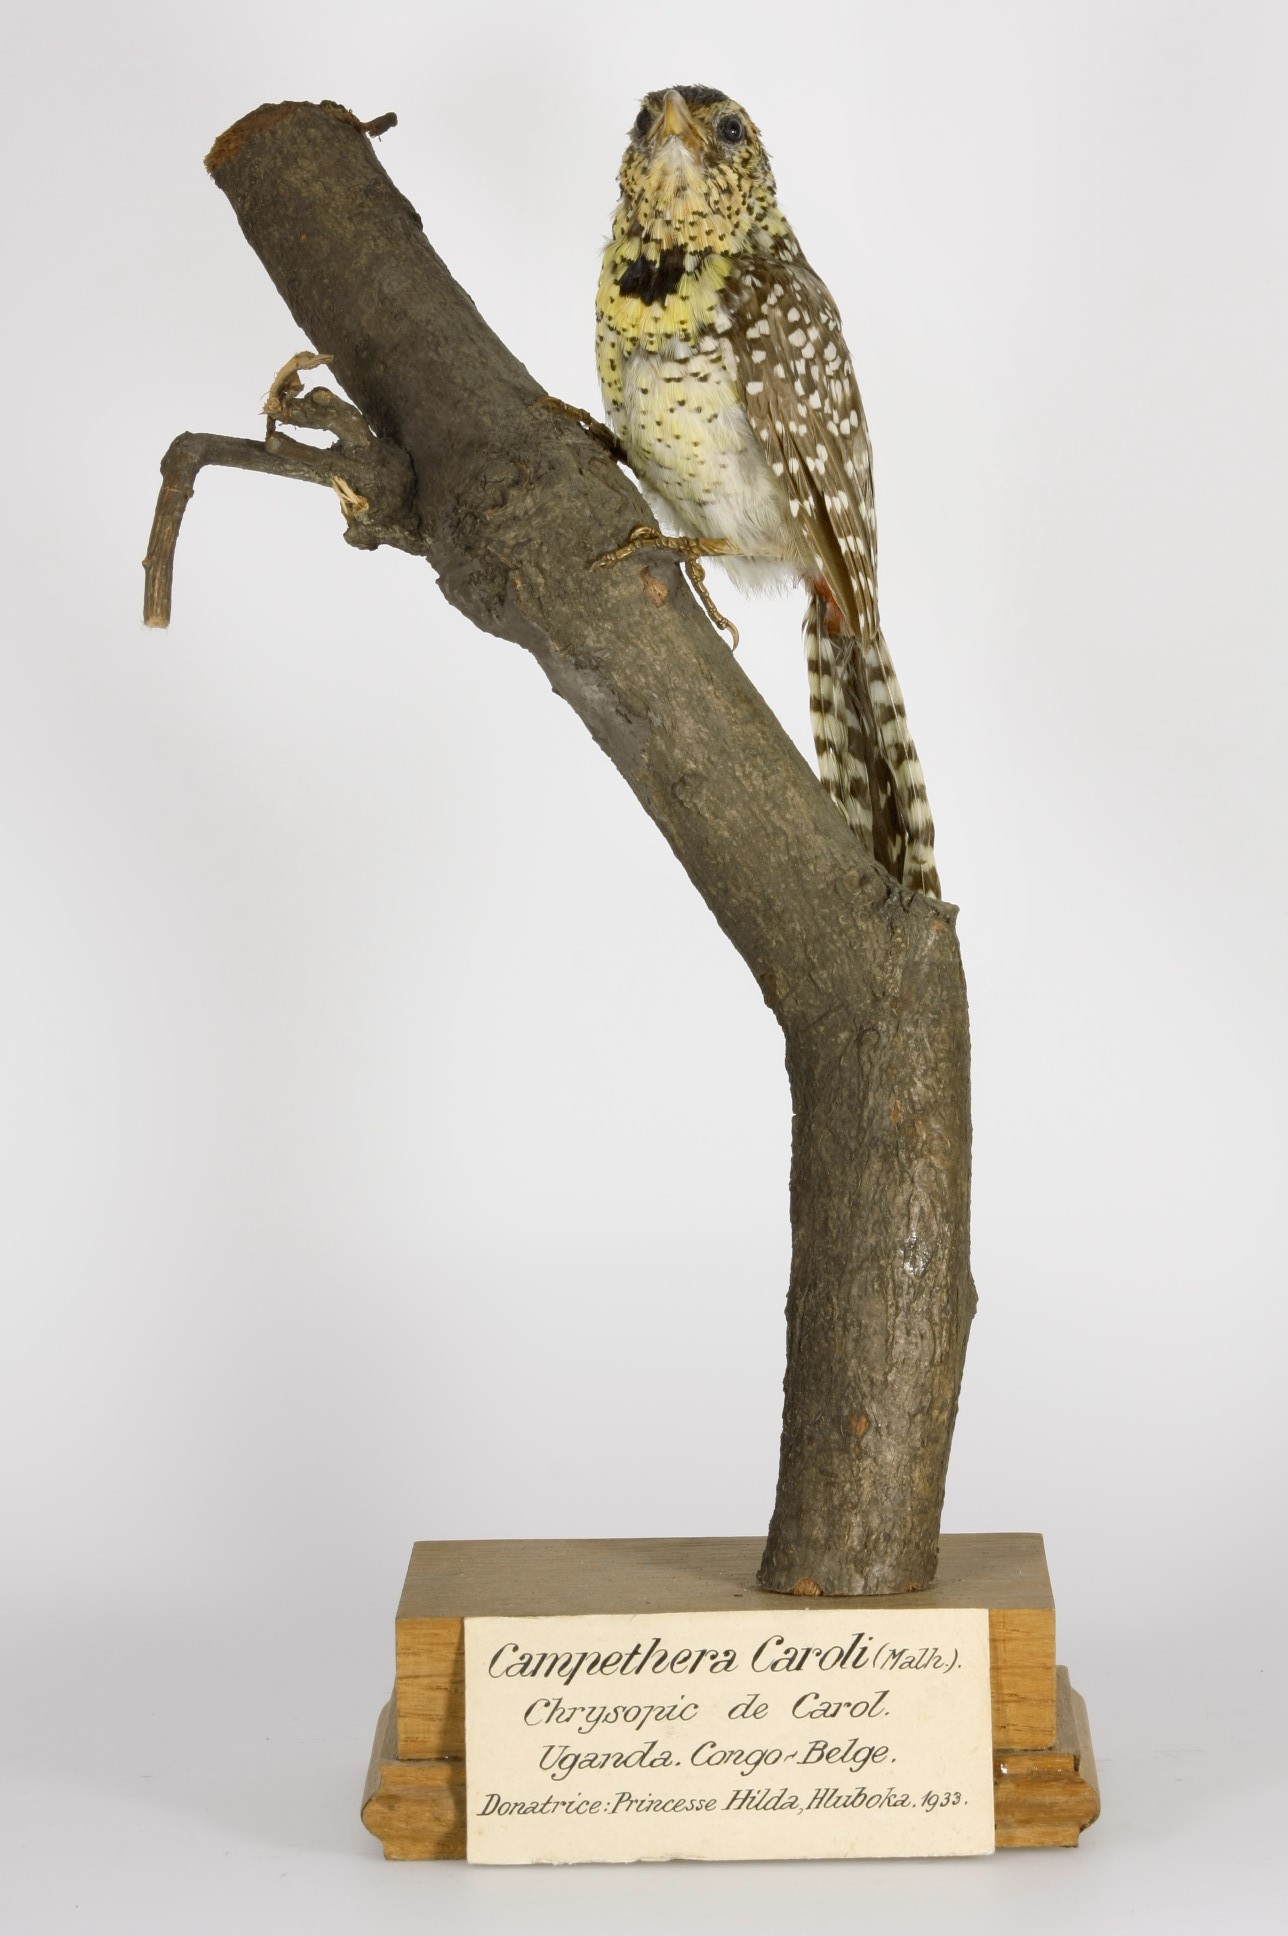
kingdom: Animalia
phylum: Chordata
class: Aves
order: Piciformes
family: Lybiidae
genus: Trachyphonus
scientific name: Trachyphonus darnaudii
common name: D'arnaud's barbet
